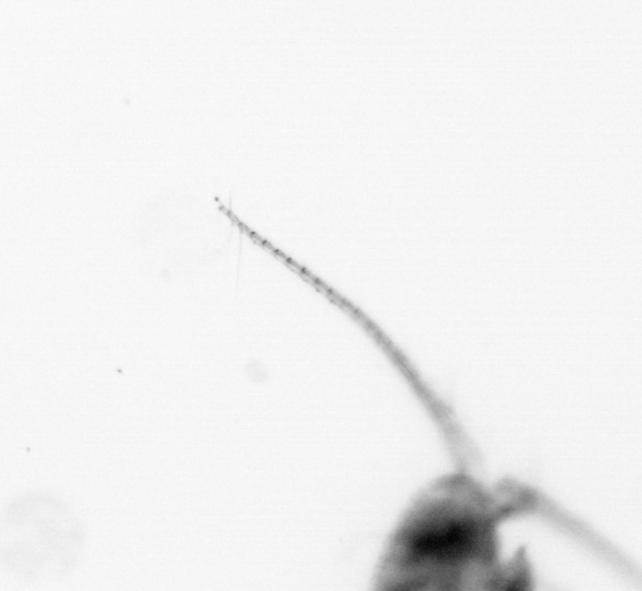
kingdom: Animalia
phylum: Arthropoda
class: Copepoda
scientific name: Copepoda
